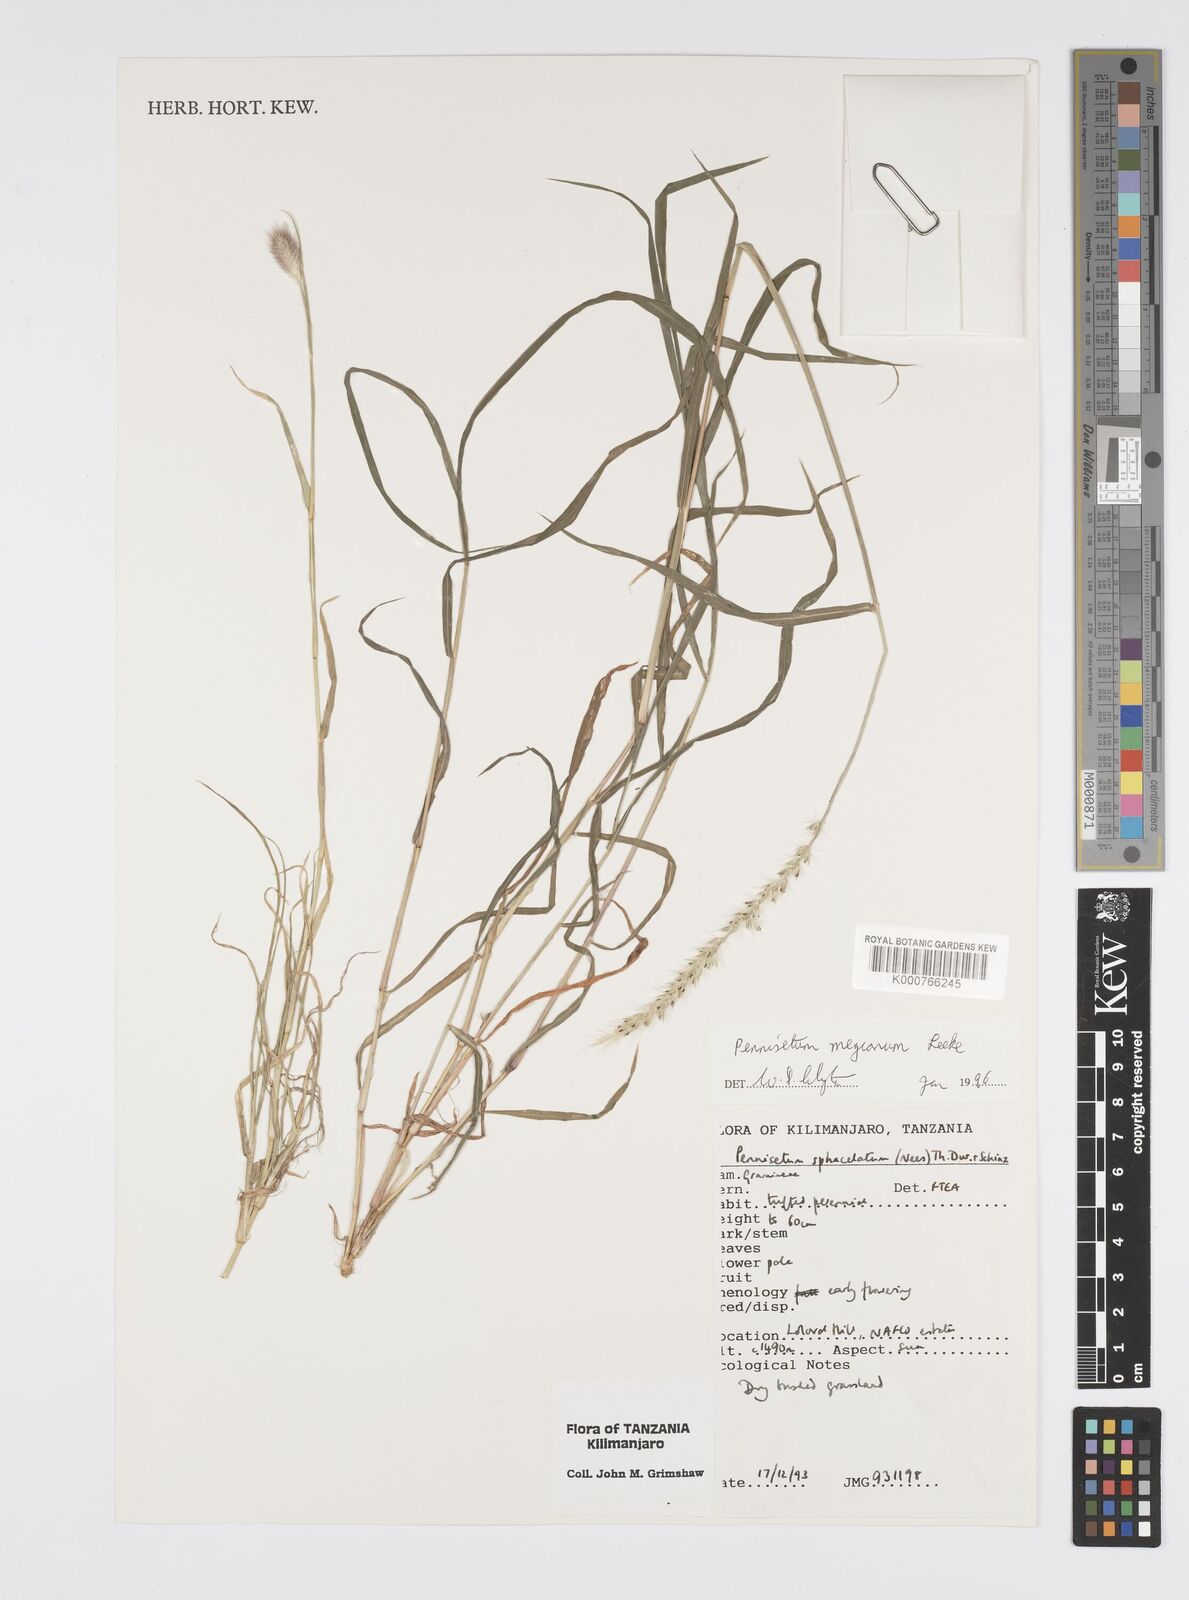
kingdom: Plantae
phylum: Tracheophyta
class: Liliopsida
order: Poales
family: Poaceae
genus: Cenchrus
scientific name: Cenchrus mezianus
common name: Bamboo grass
